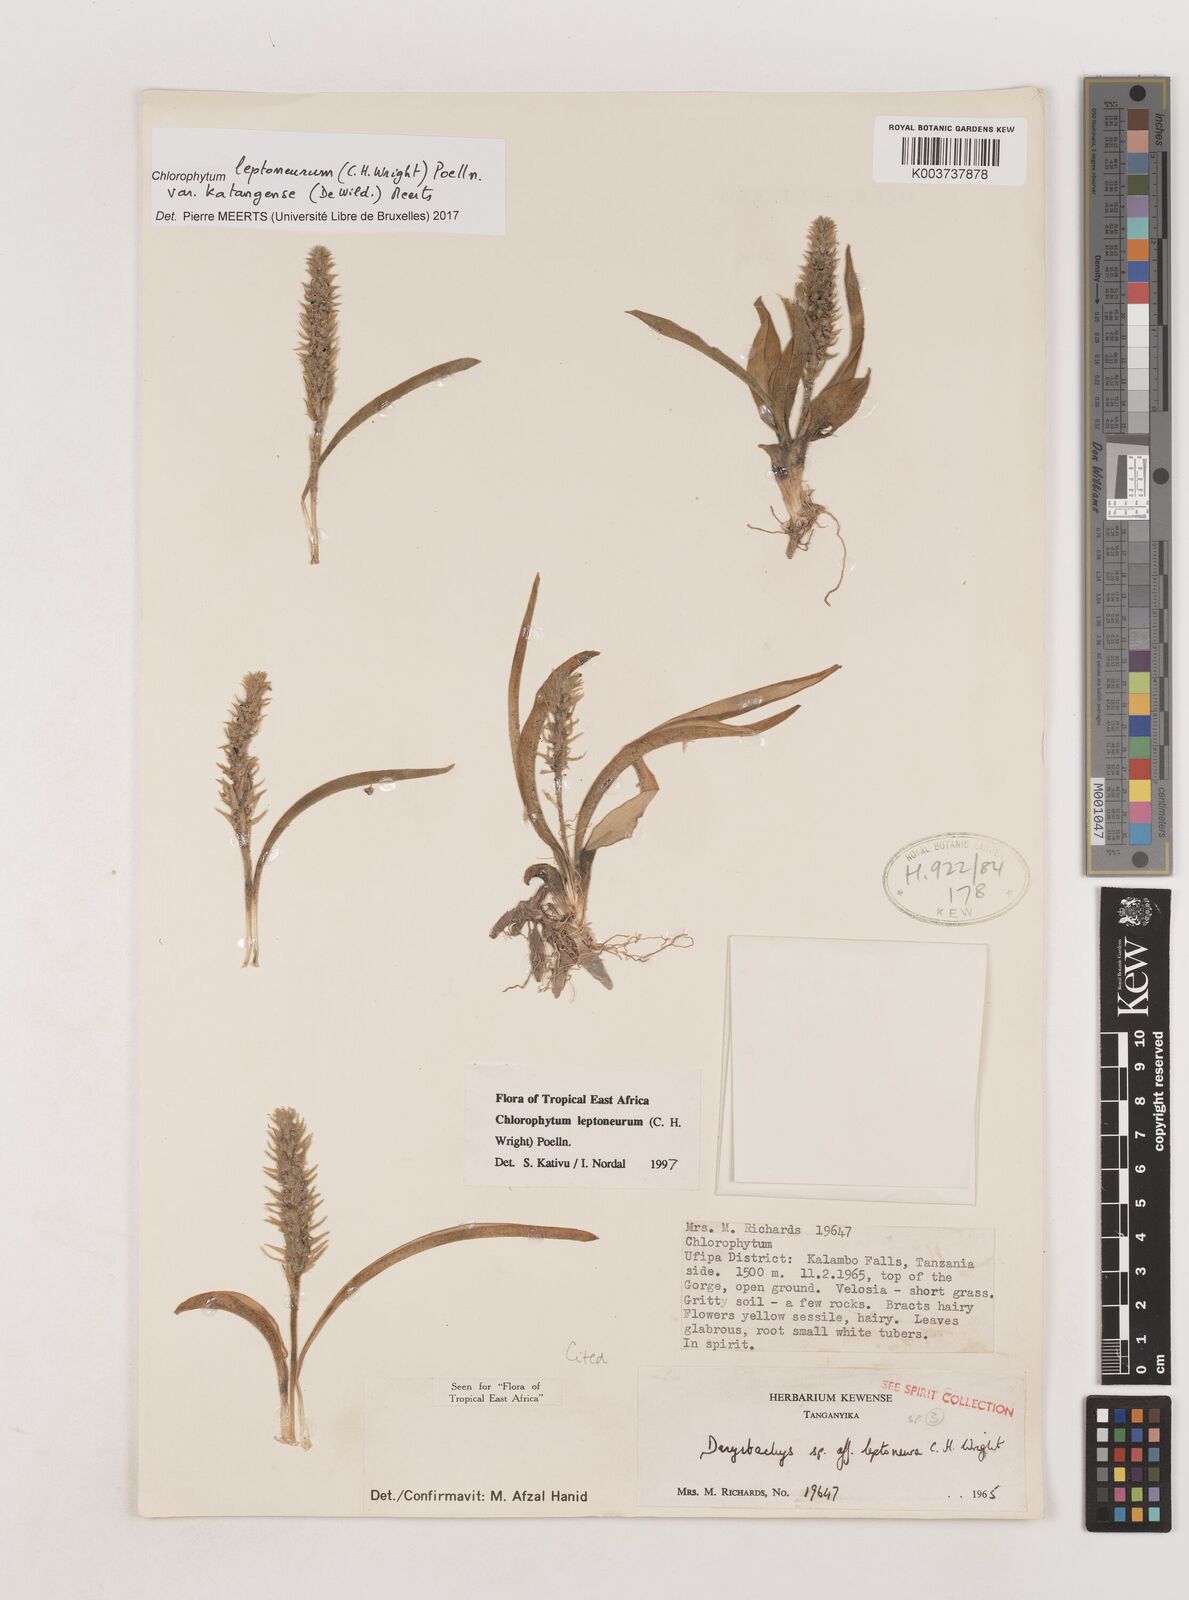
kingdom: Plantae
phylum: Tracheophyta
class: Liliopsida
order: Asparagales
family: Asparagaceae
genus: Chlorophytum
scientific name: Chlorophytum leptoneurum
